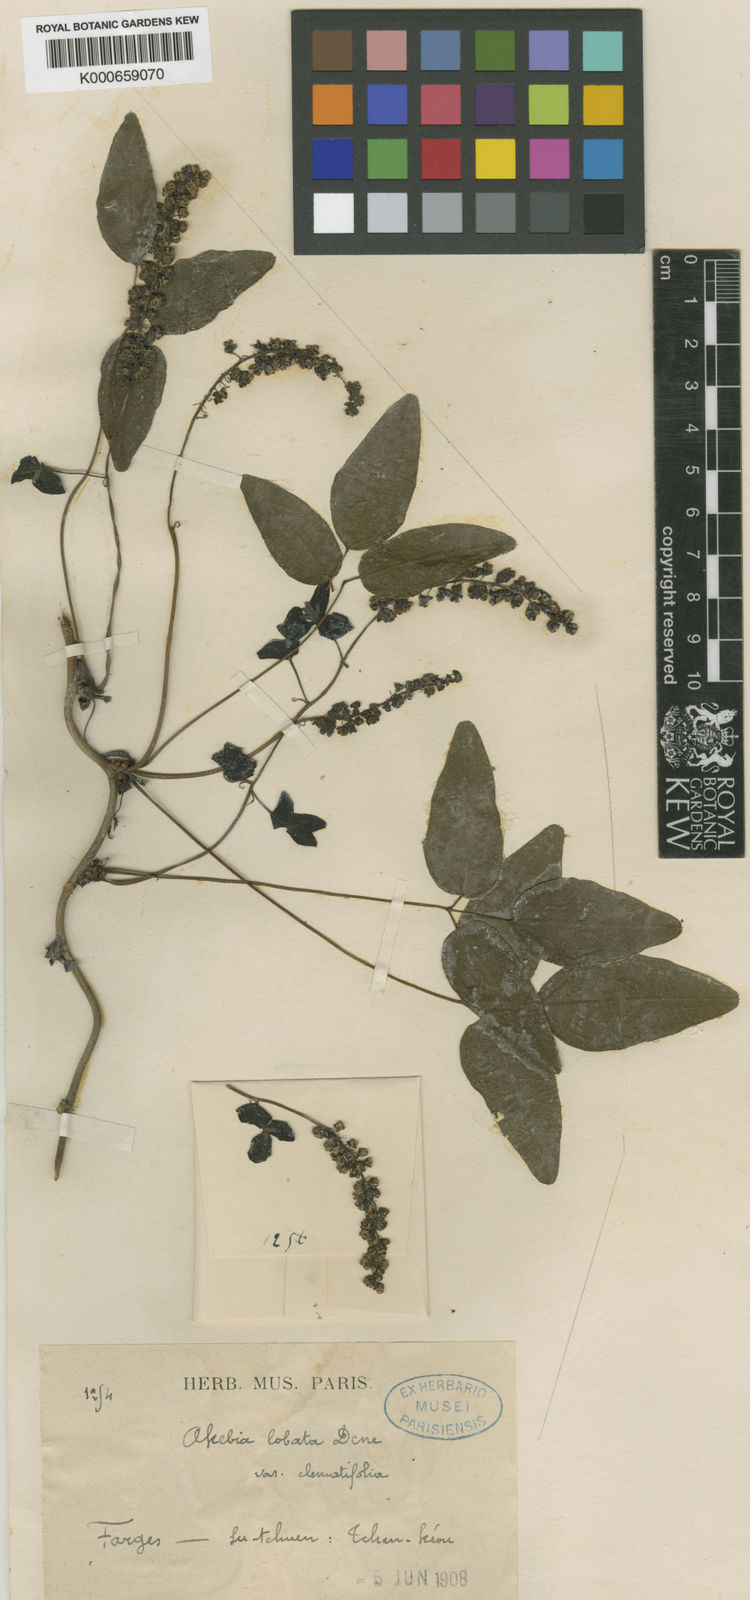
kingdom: Plantae
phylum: Tracheophyta
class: Magnoliopsida
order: Ranunculales
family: Lardizabalaceae
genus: Akebia
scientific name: Akebia trifoliata
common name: Chocolate-vine
